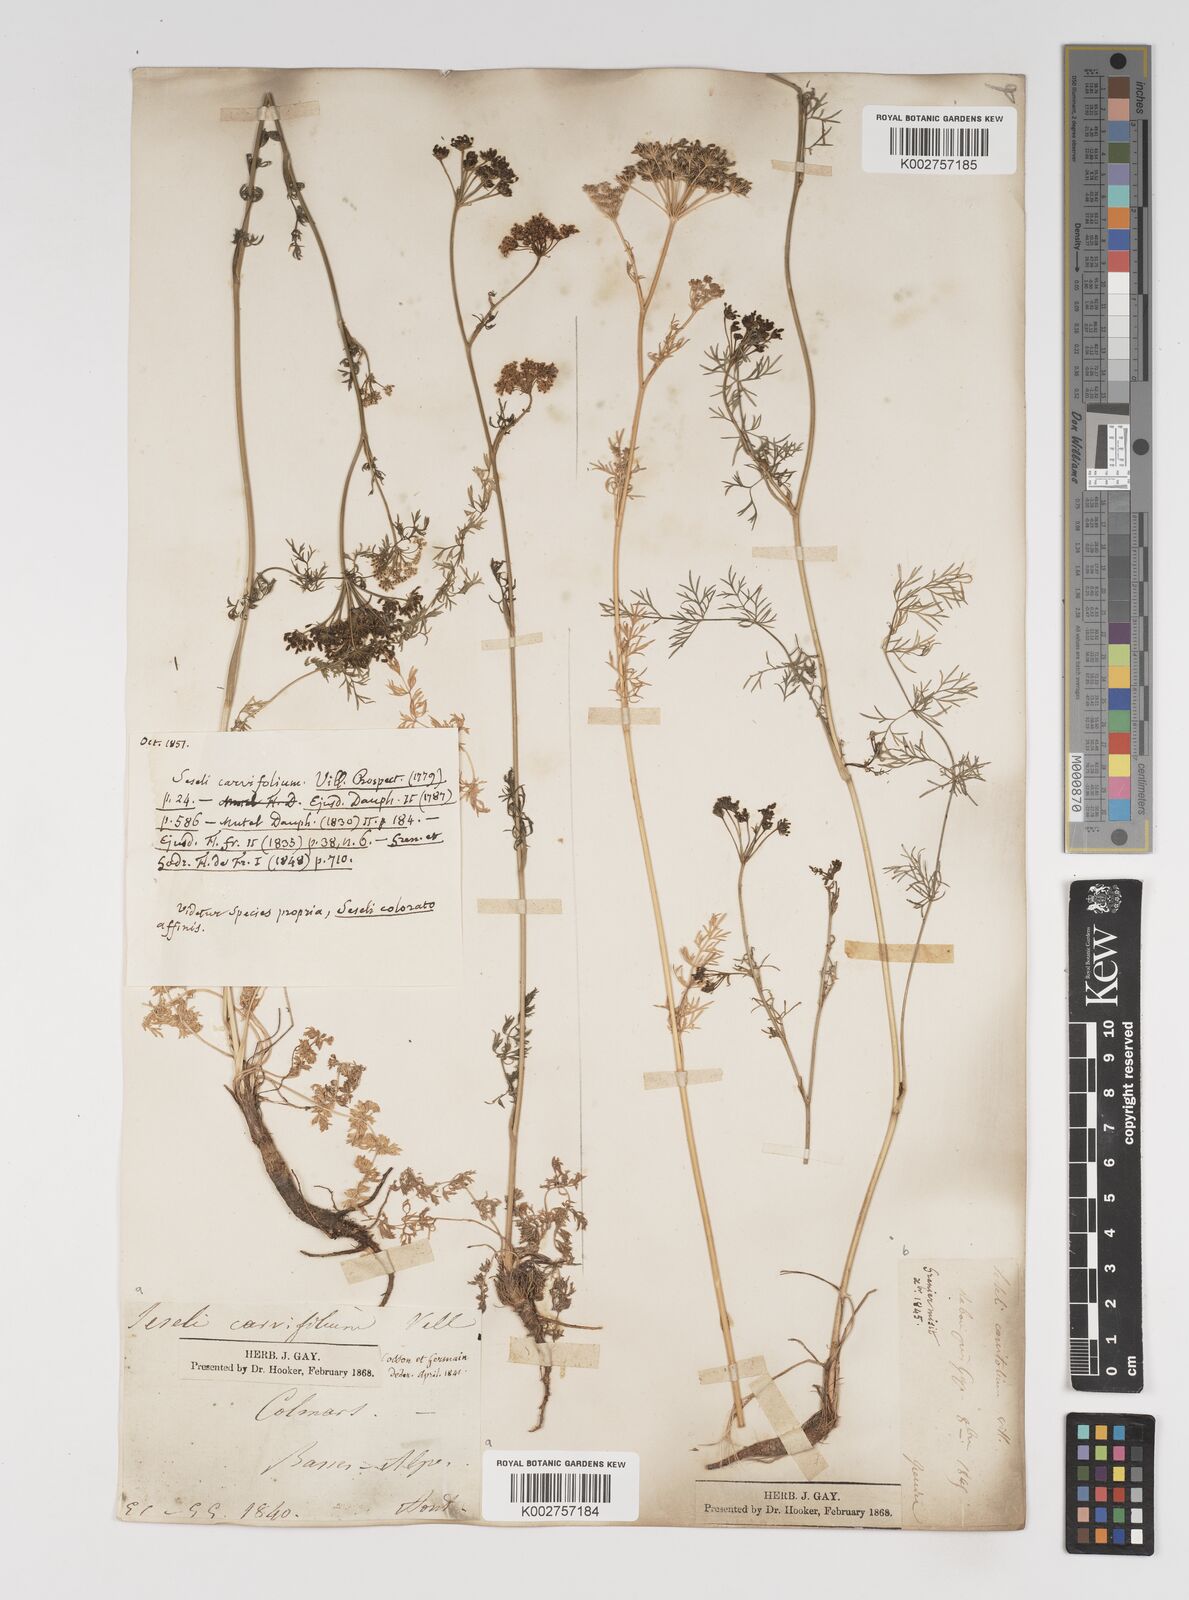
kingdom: Plantae
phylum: Tracheophyta
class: Magnoliopsida
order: Apiales
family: Apiaceae
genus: Seseli
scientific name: Seseli annuum
